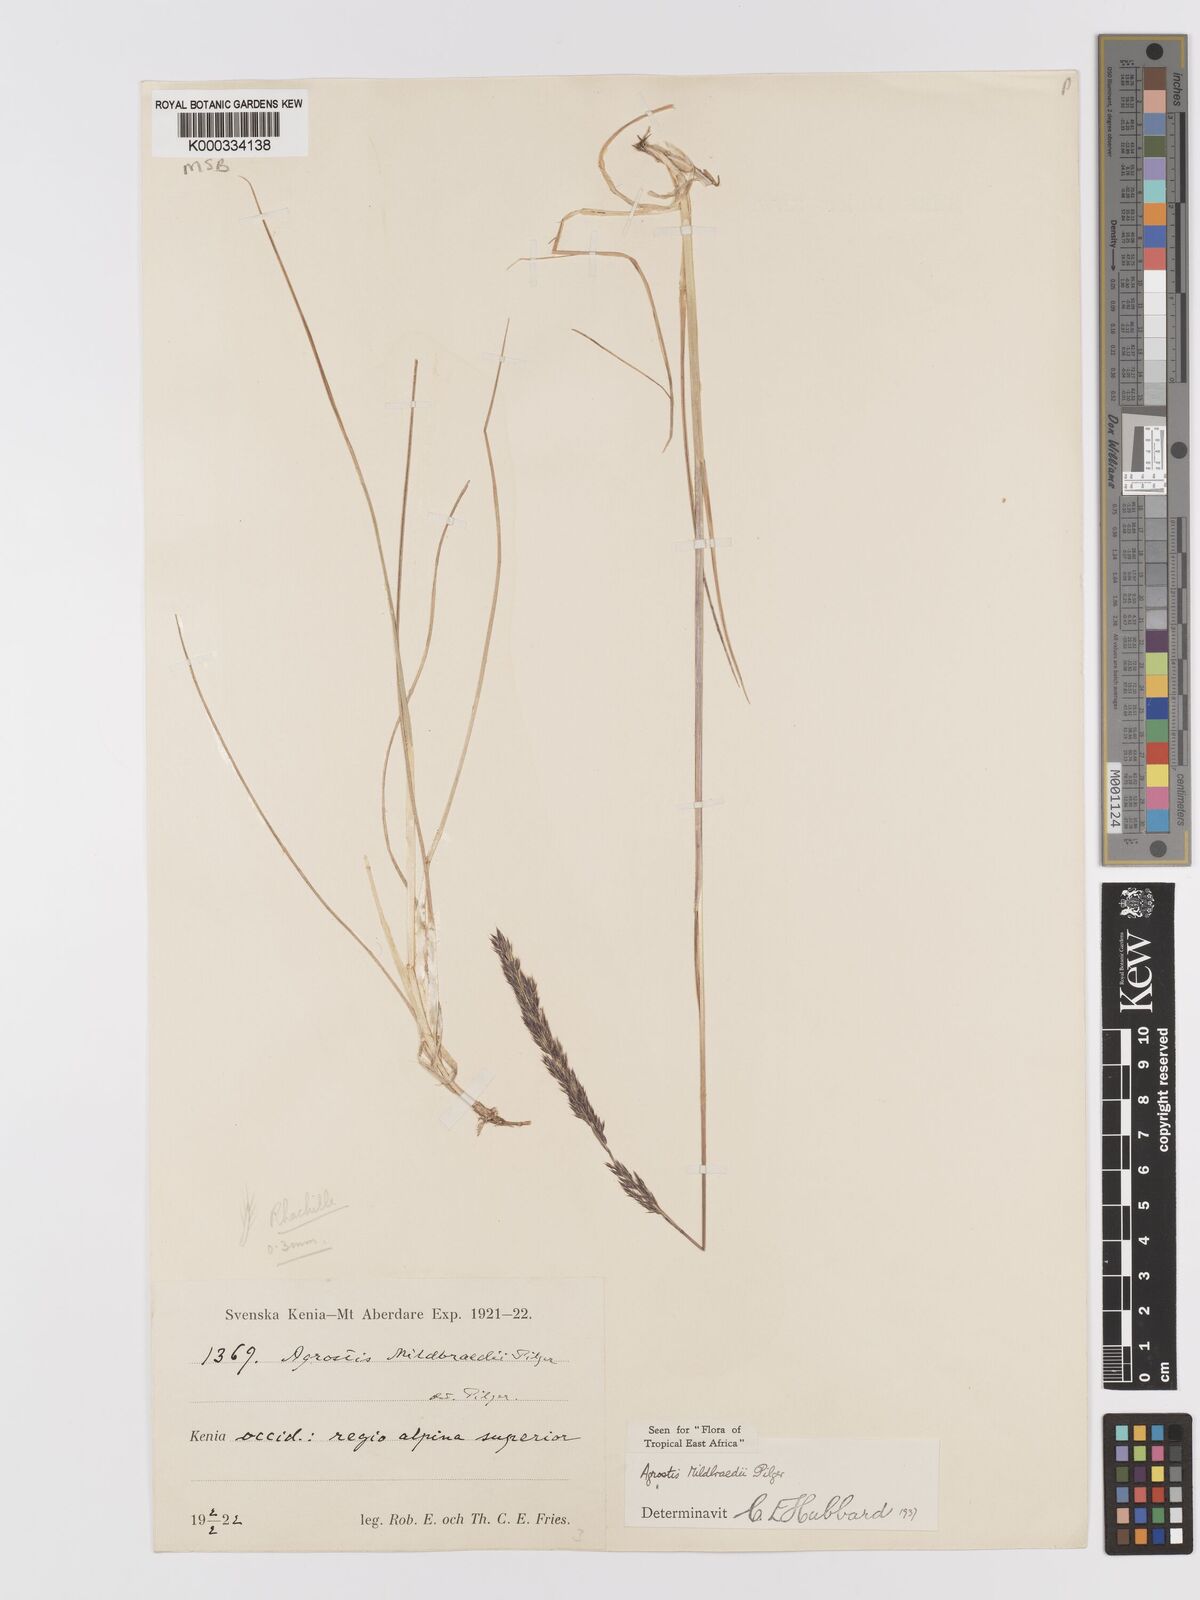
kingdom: Plantae
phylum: Tracheophyta
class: Liliopsida
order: Poales
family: Poaceae
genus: Agrostis
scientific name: Agrostis quinqueseta
